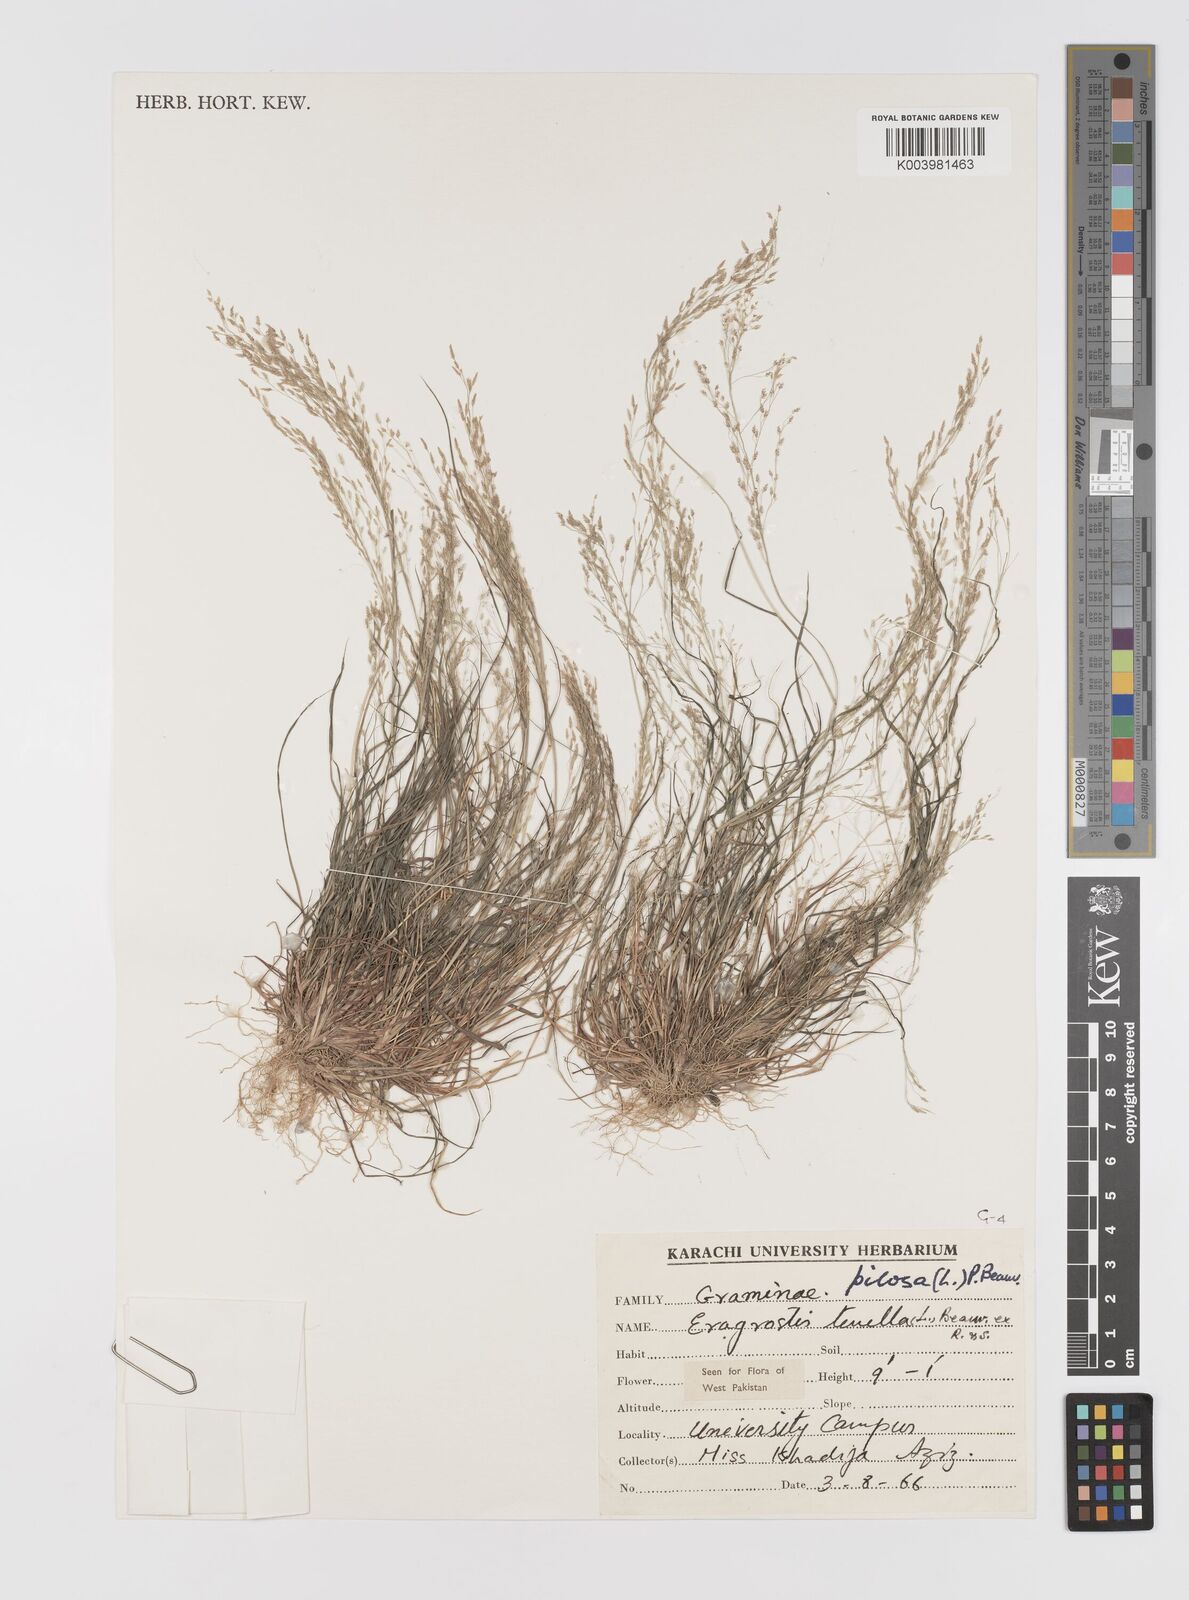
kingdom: Plantae
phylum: Tracheophyta
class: Liliopsida
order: Poales
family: Poaceae
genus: Eragrostis
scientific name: Eragrostis pilosa
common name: Indian lovegrass
